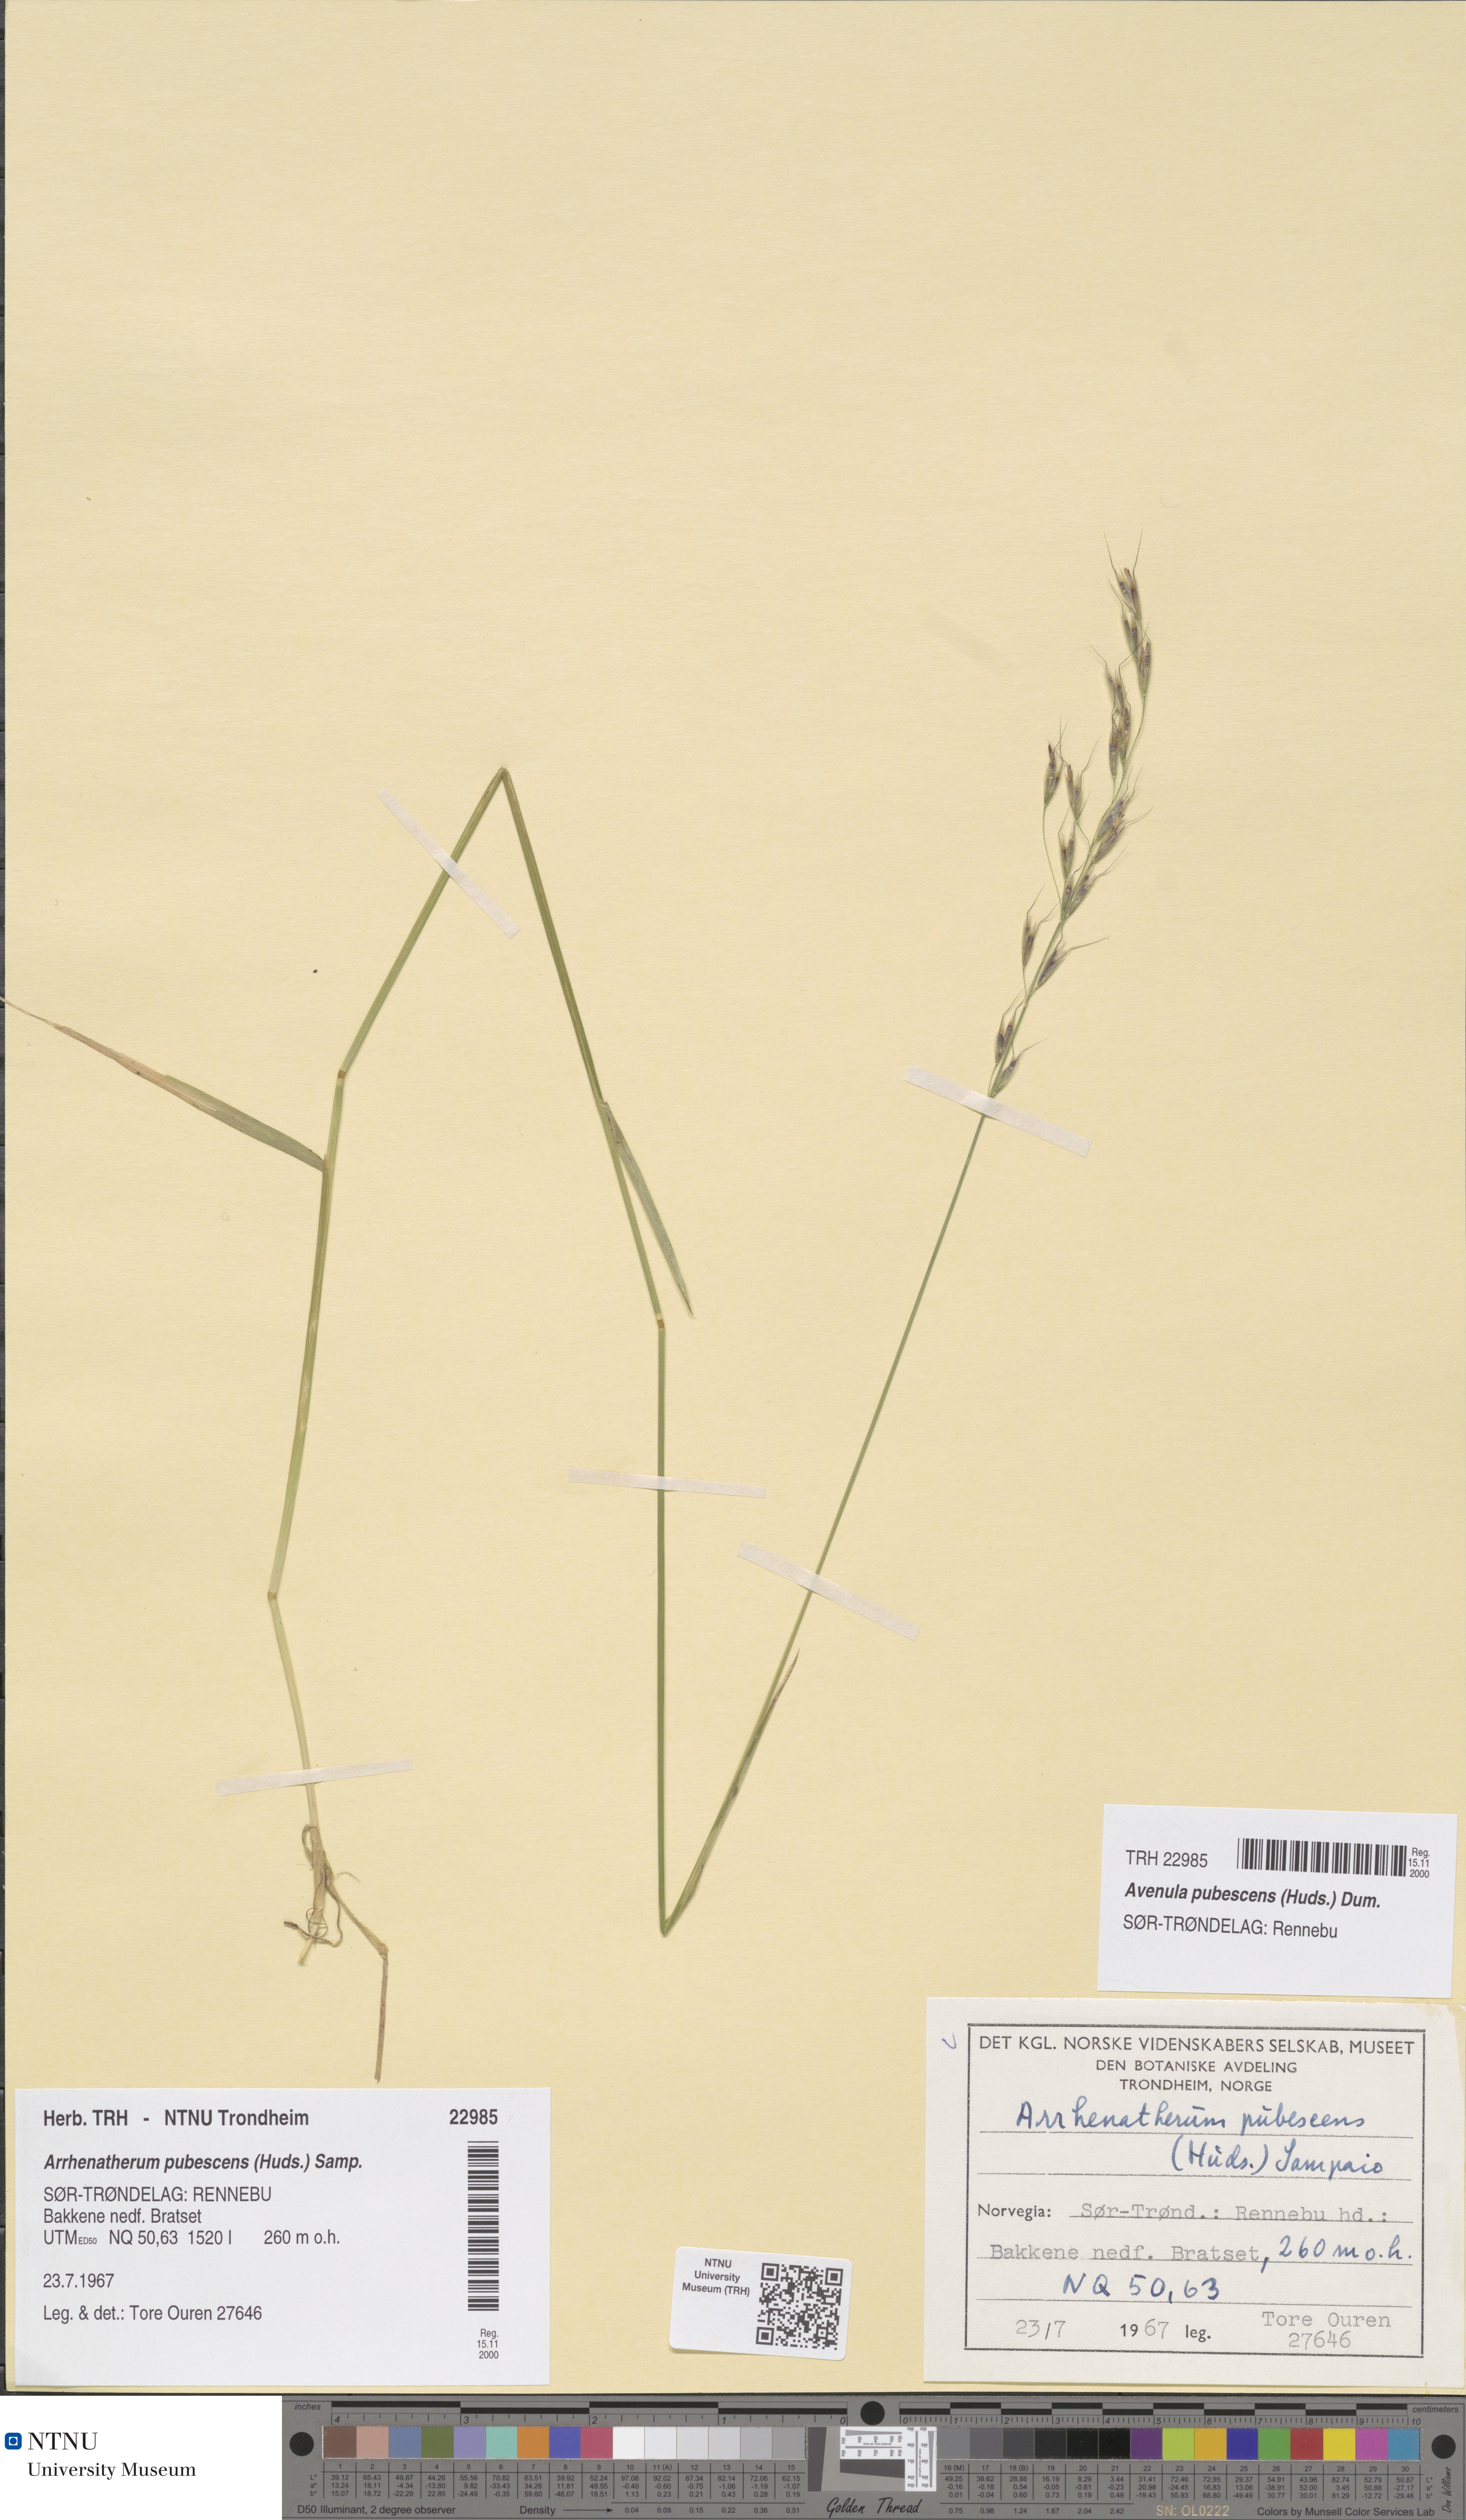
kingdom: Plantae
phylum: Tracheophyta
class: Liliopsida
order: Poales
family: Poaceae
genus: Avenula
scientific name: Avenula pubescens
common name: Downy alpine oatgrass
